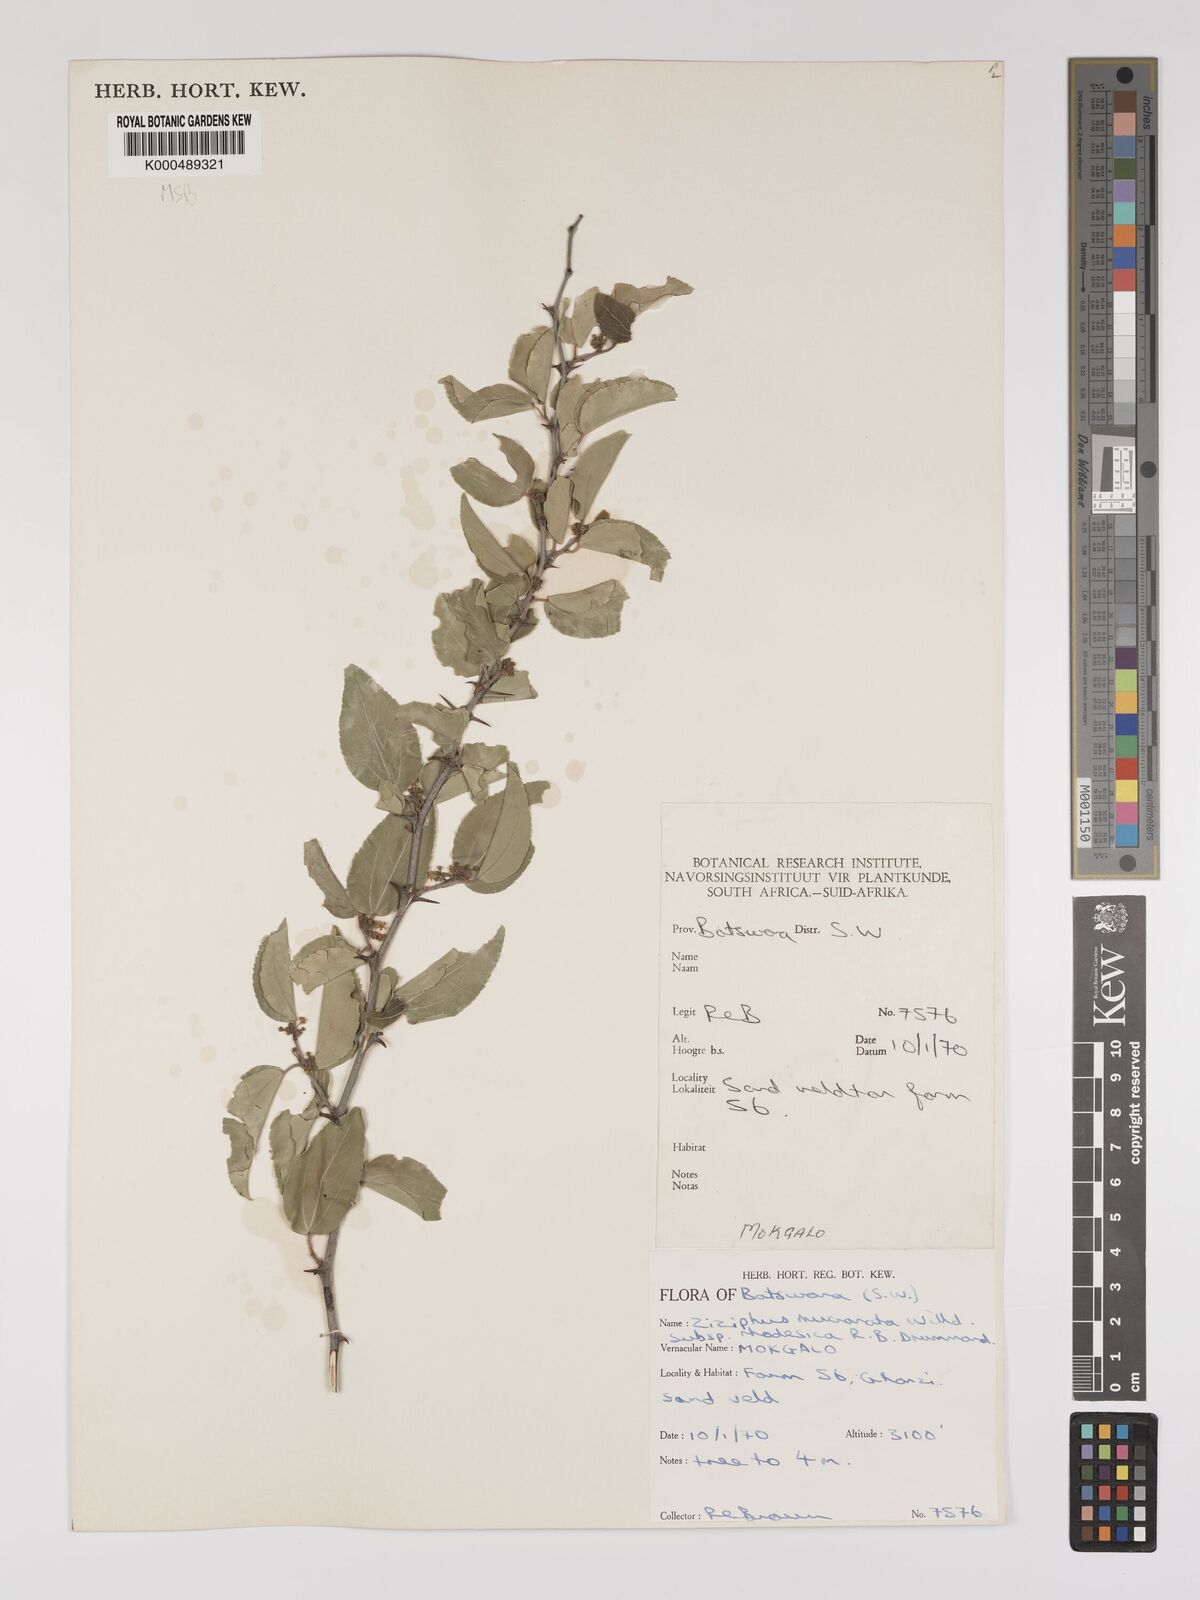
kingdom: Plantae
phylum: Tracheophyta
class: Magnoliopsida
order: Rosales
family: Rhamnaceae
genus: Ziziphus
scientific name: Ziziphus mucronata
